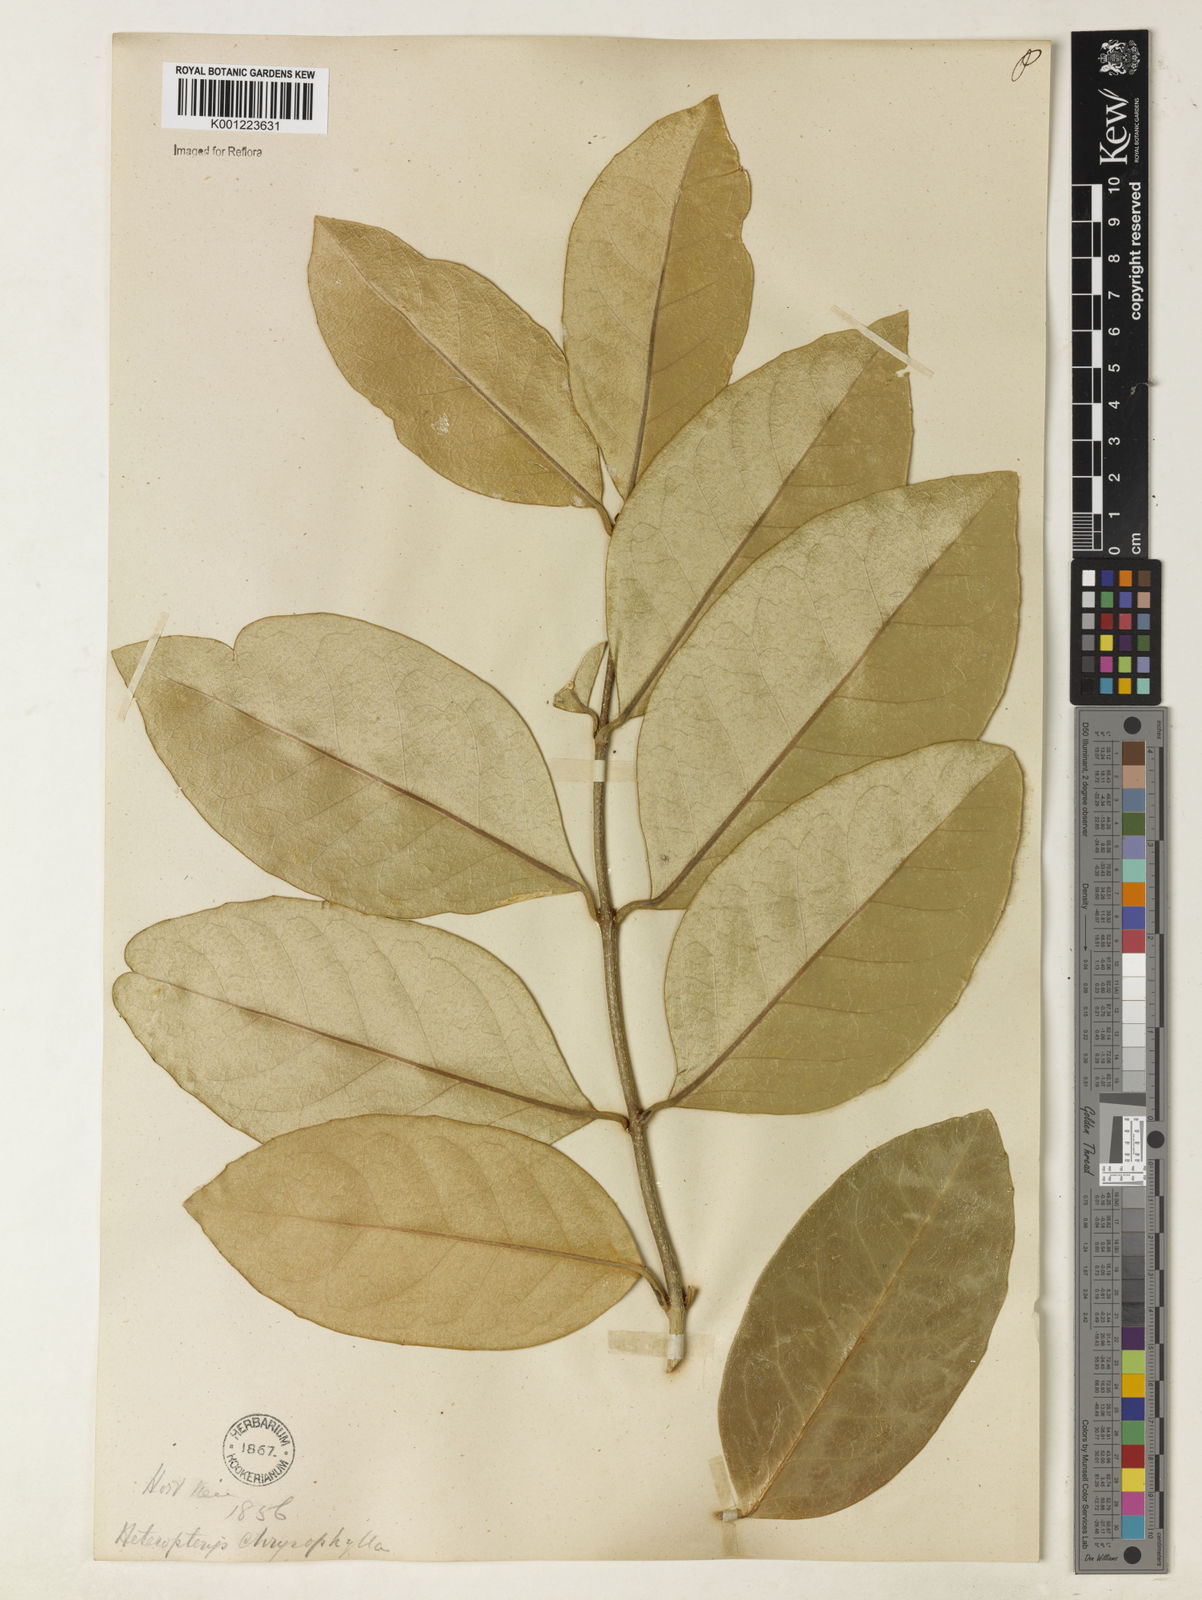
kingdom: Plantae
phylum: Tracheophyta
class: Magnoliopsida
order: Malpighiales
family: Malpighiaceae
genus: Heteropterys
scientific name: Heteropterys chrysophylla
